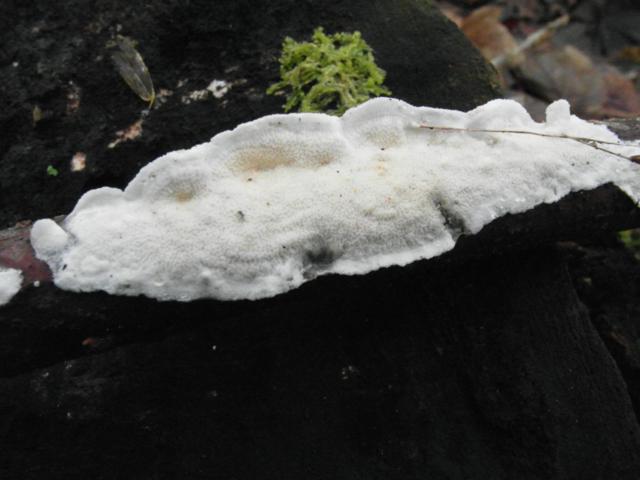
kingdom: Fungi
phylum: Basidiomycota
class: Agaricomycetes
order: Polyporales
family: Irpicaceae
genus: Byssomerulius
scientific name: Byssomerulius corium
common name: læder-åresvamp
